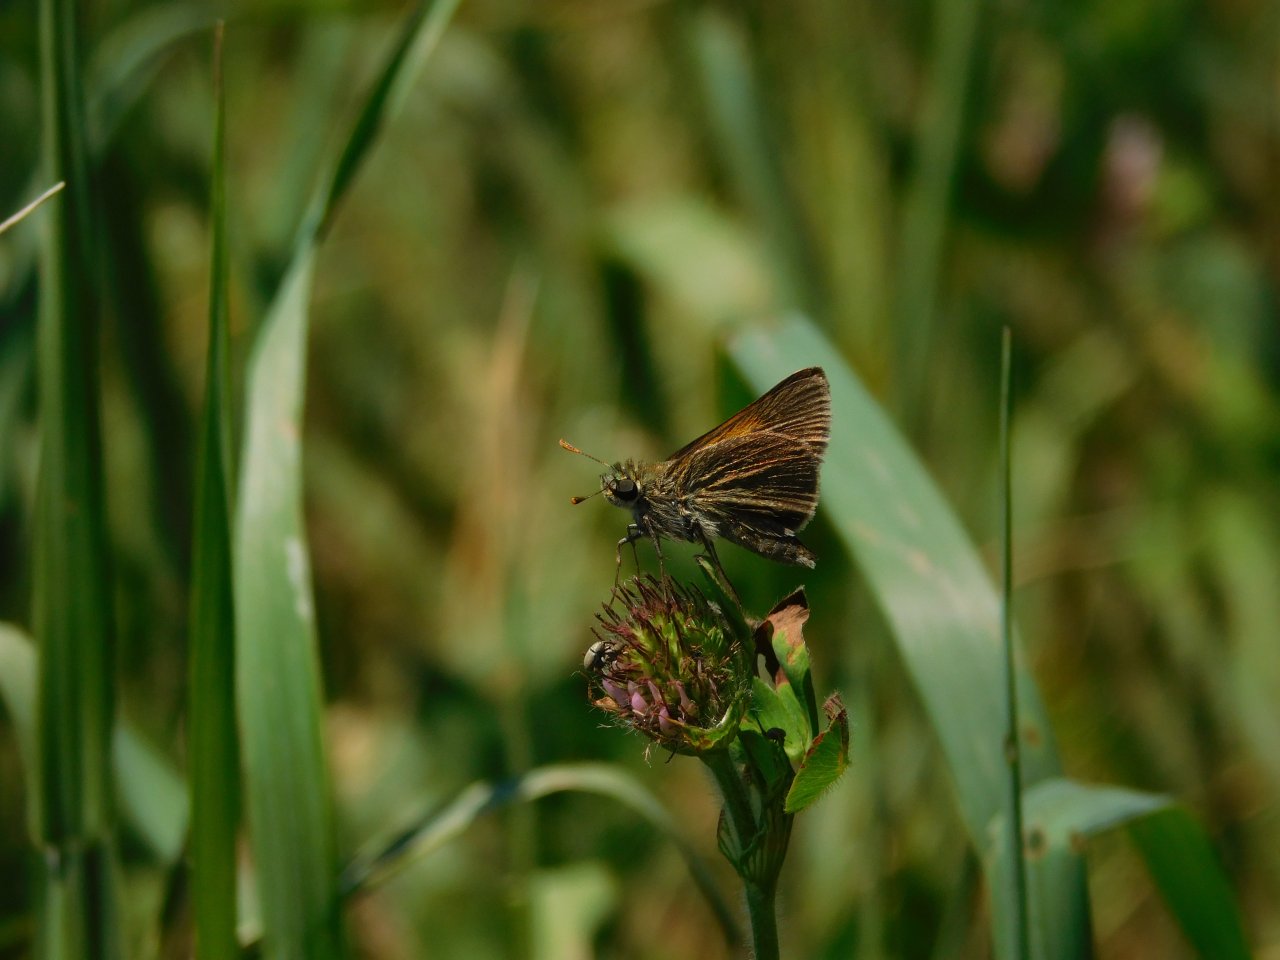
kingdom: Animalia
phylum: Arthropoda
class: Insecta
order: Lepidoptera
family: Hesperiidae
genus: Polites
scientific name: Polites themistocles
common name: Tawny-edged Skipper
